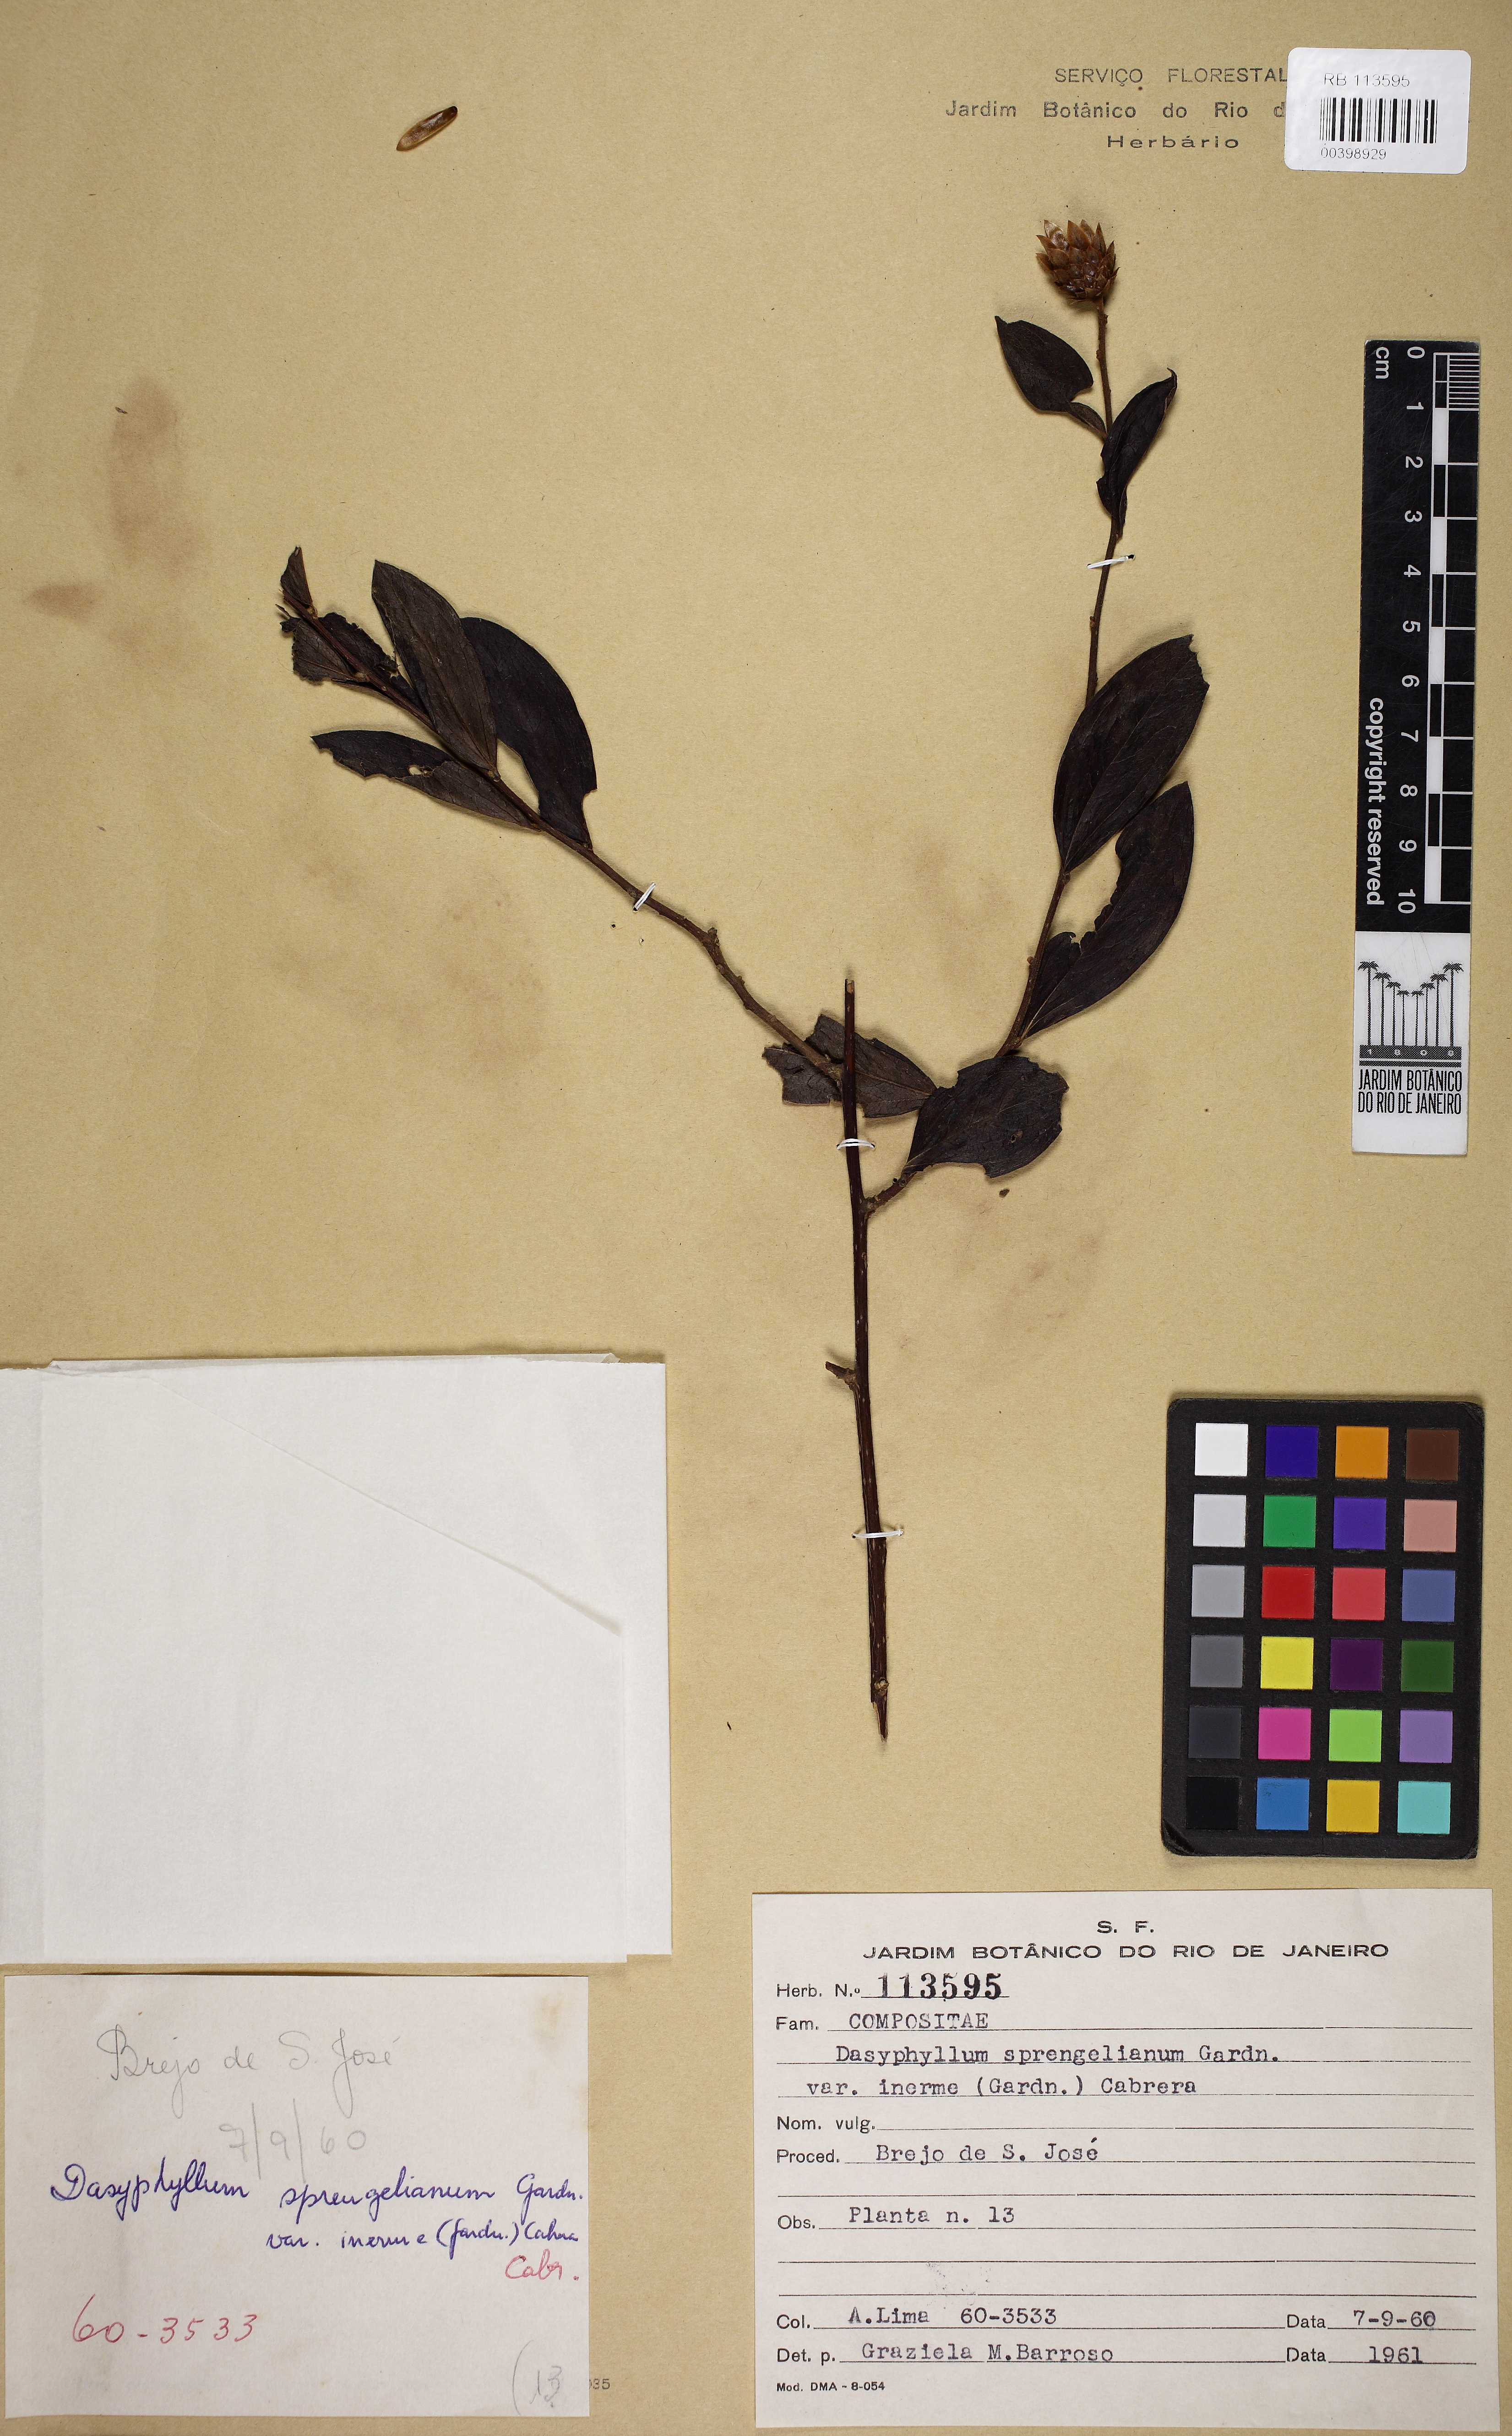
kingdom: Plantae
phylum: Tracheophyta
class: Magnoliopsida
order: Asterales
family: Asteraceae
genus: Dasyphyllum
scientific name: Dasyphyllum sprengelianum
